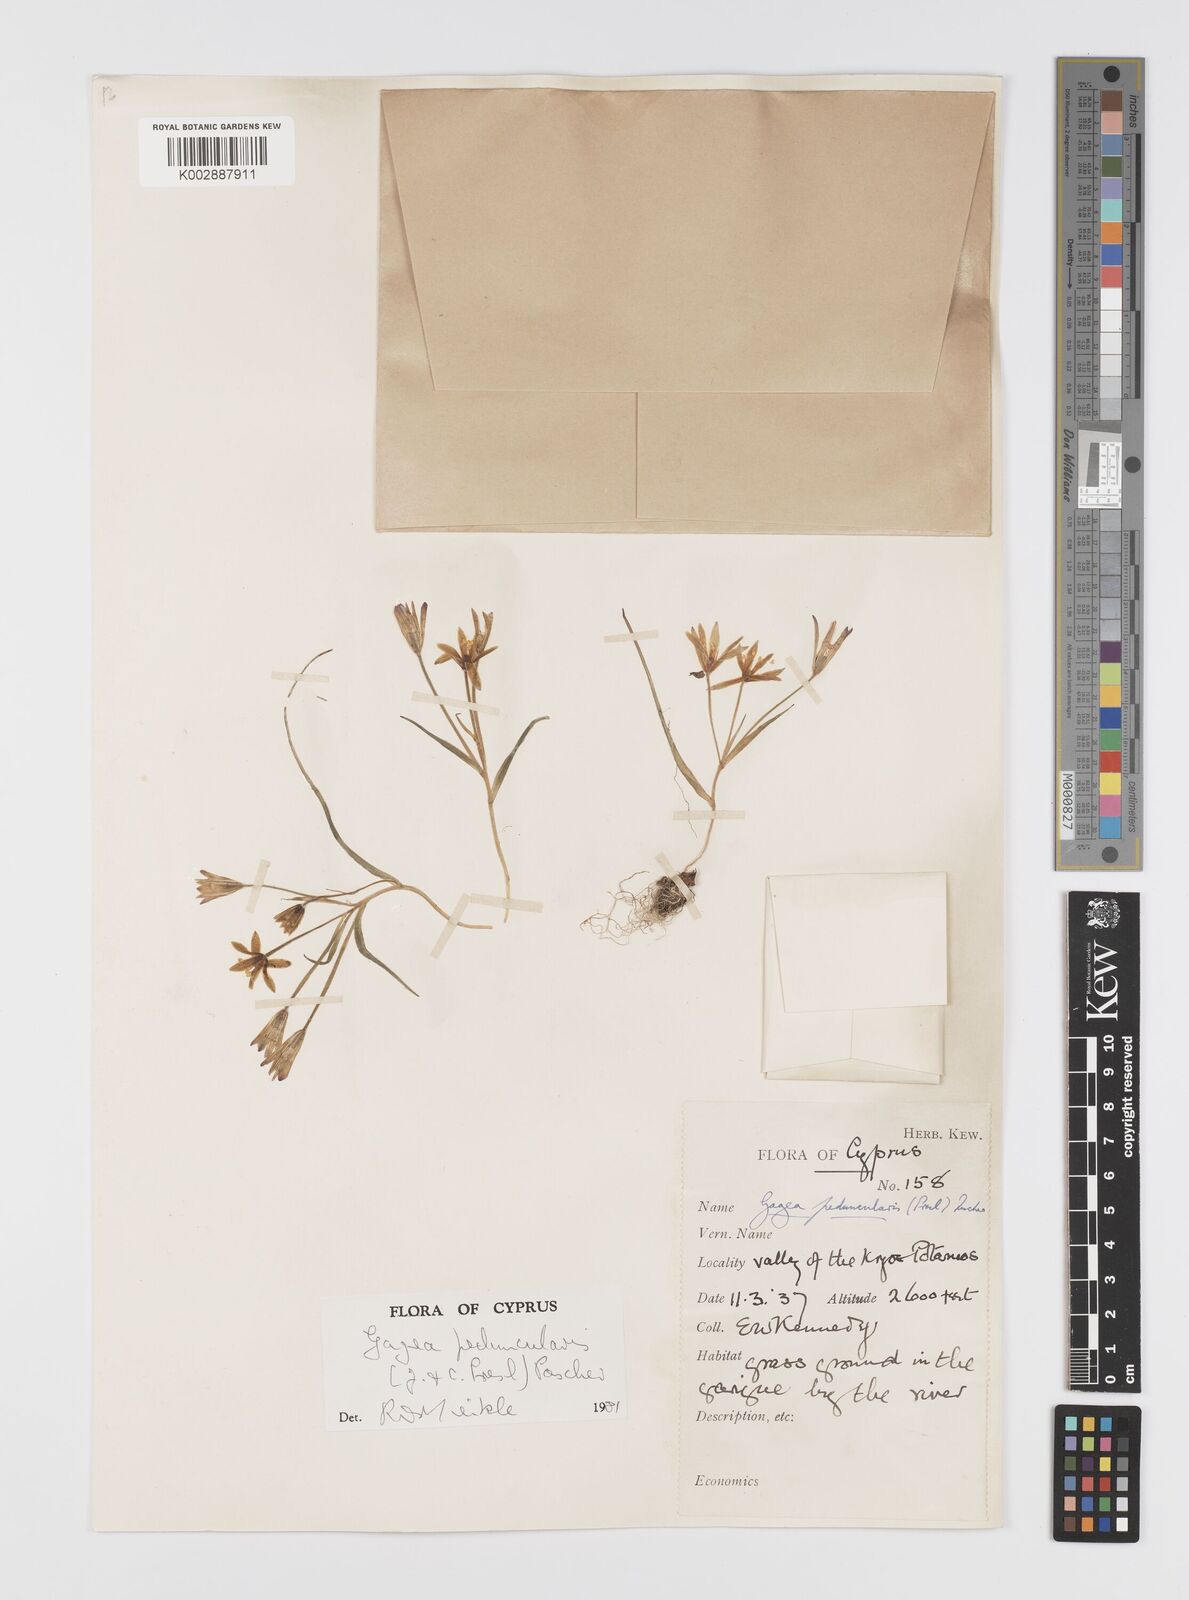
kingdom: Plantae
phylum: Tracheophyta
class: Liliopsida
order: Liliales
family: Liliaceae
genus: Gagea
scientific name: Gagea peduncularis
